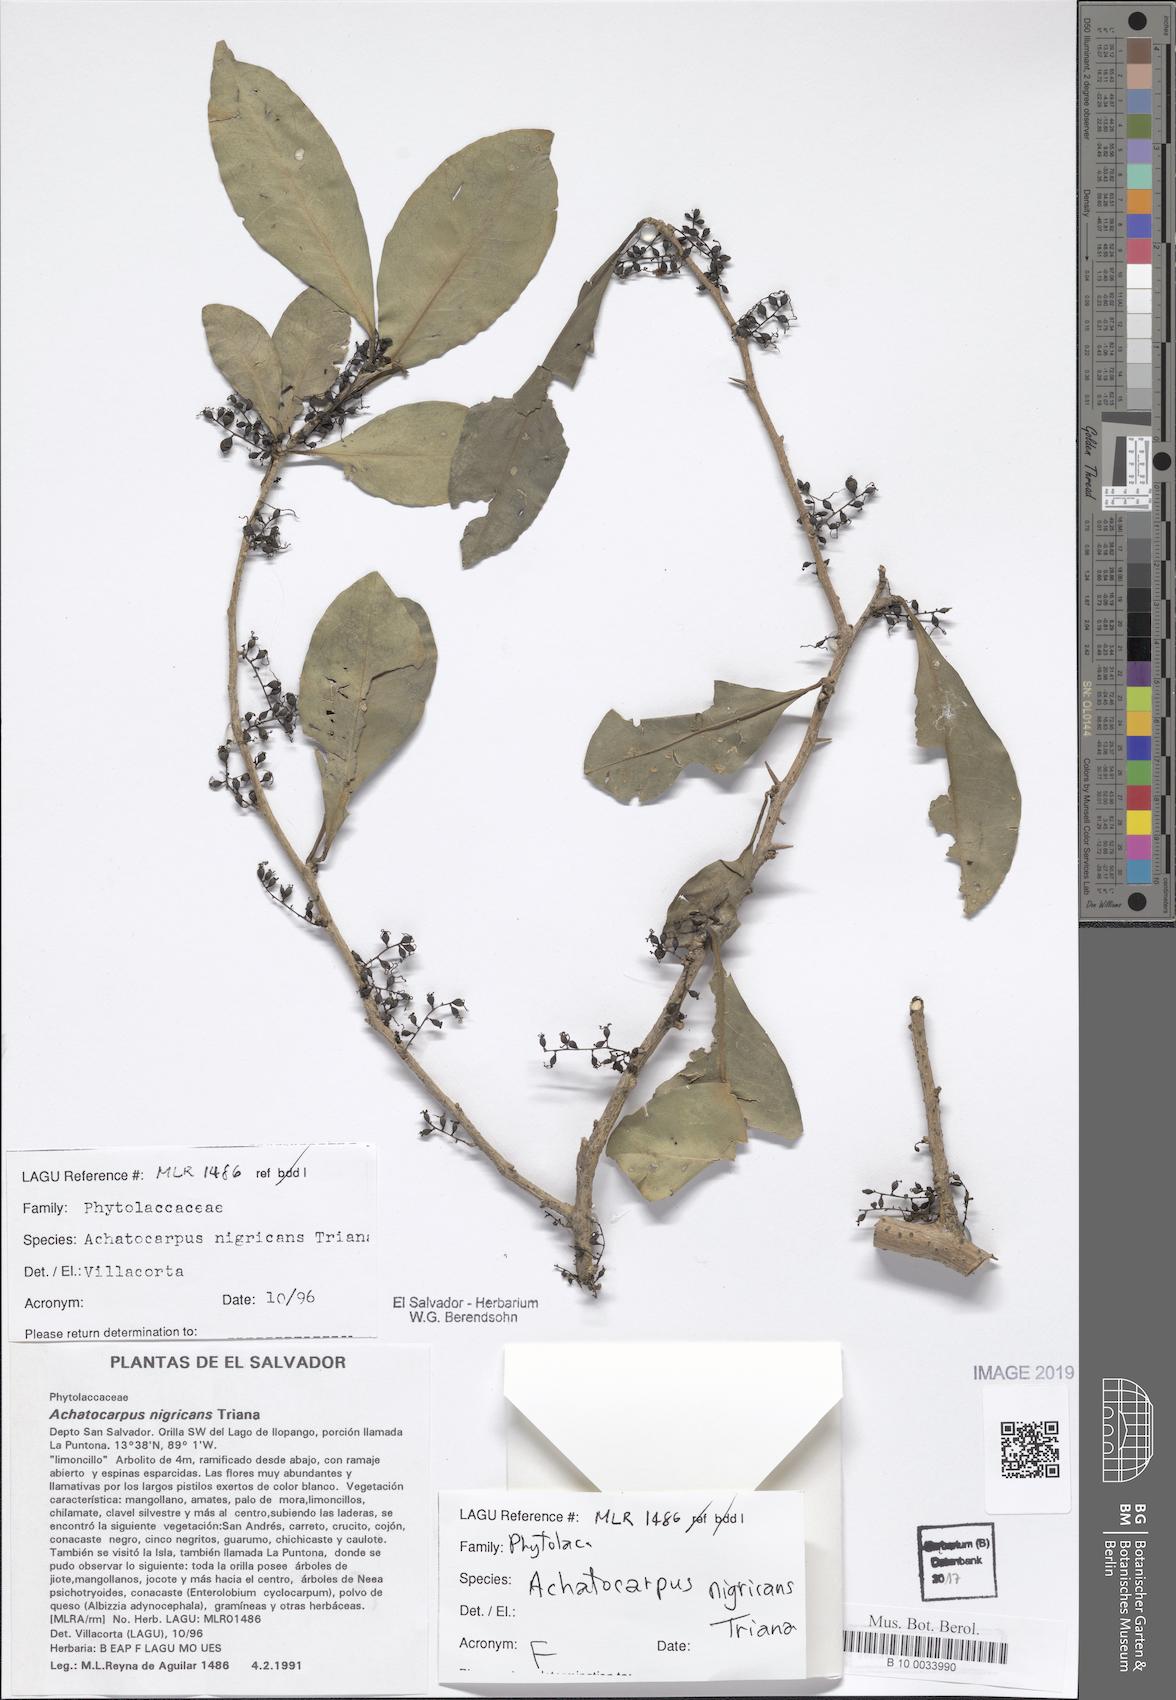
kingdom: Plantae
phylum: Tracheophyta
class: Magnoliopsida
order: Caryophyllales
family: Achatocarpaceae
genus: Achatocarpus
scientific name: Achatocarpus nigricans
